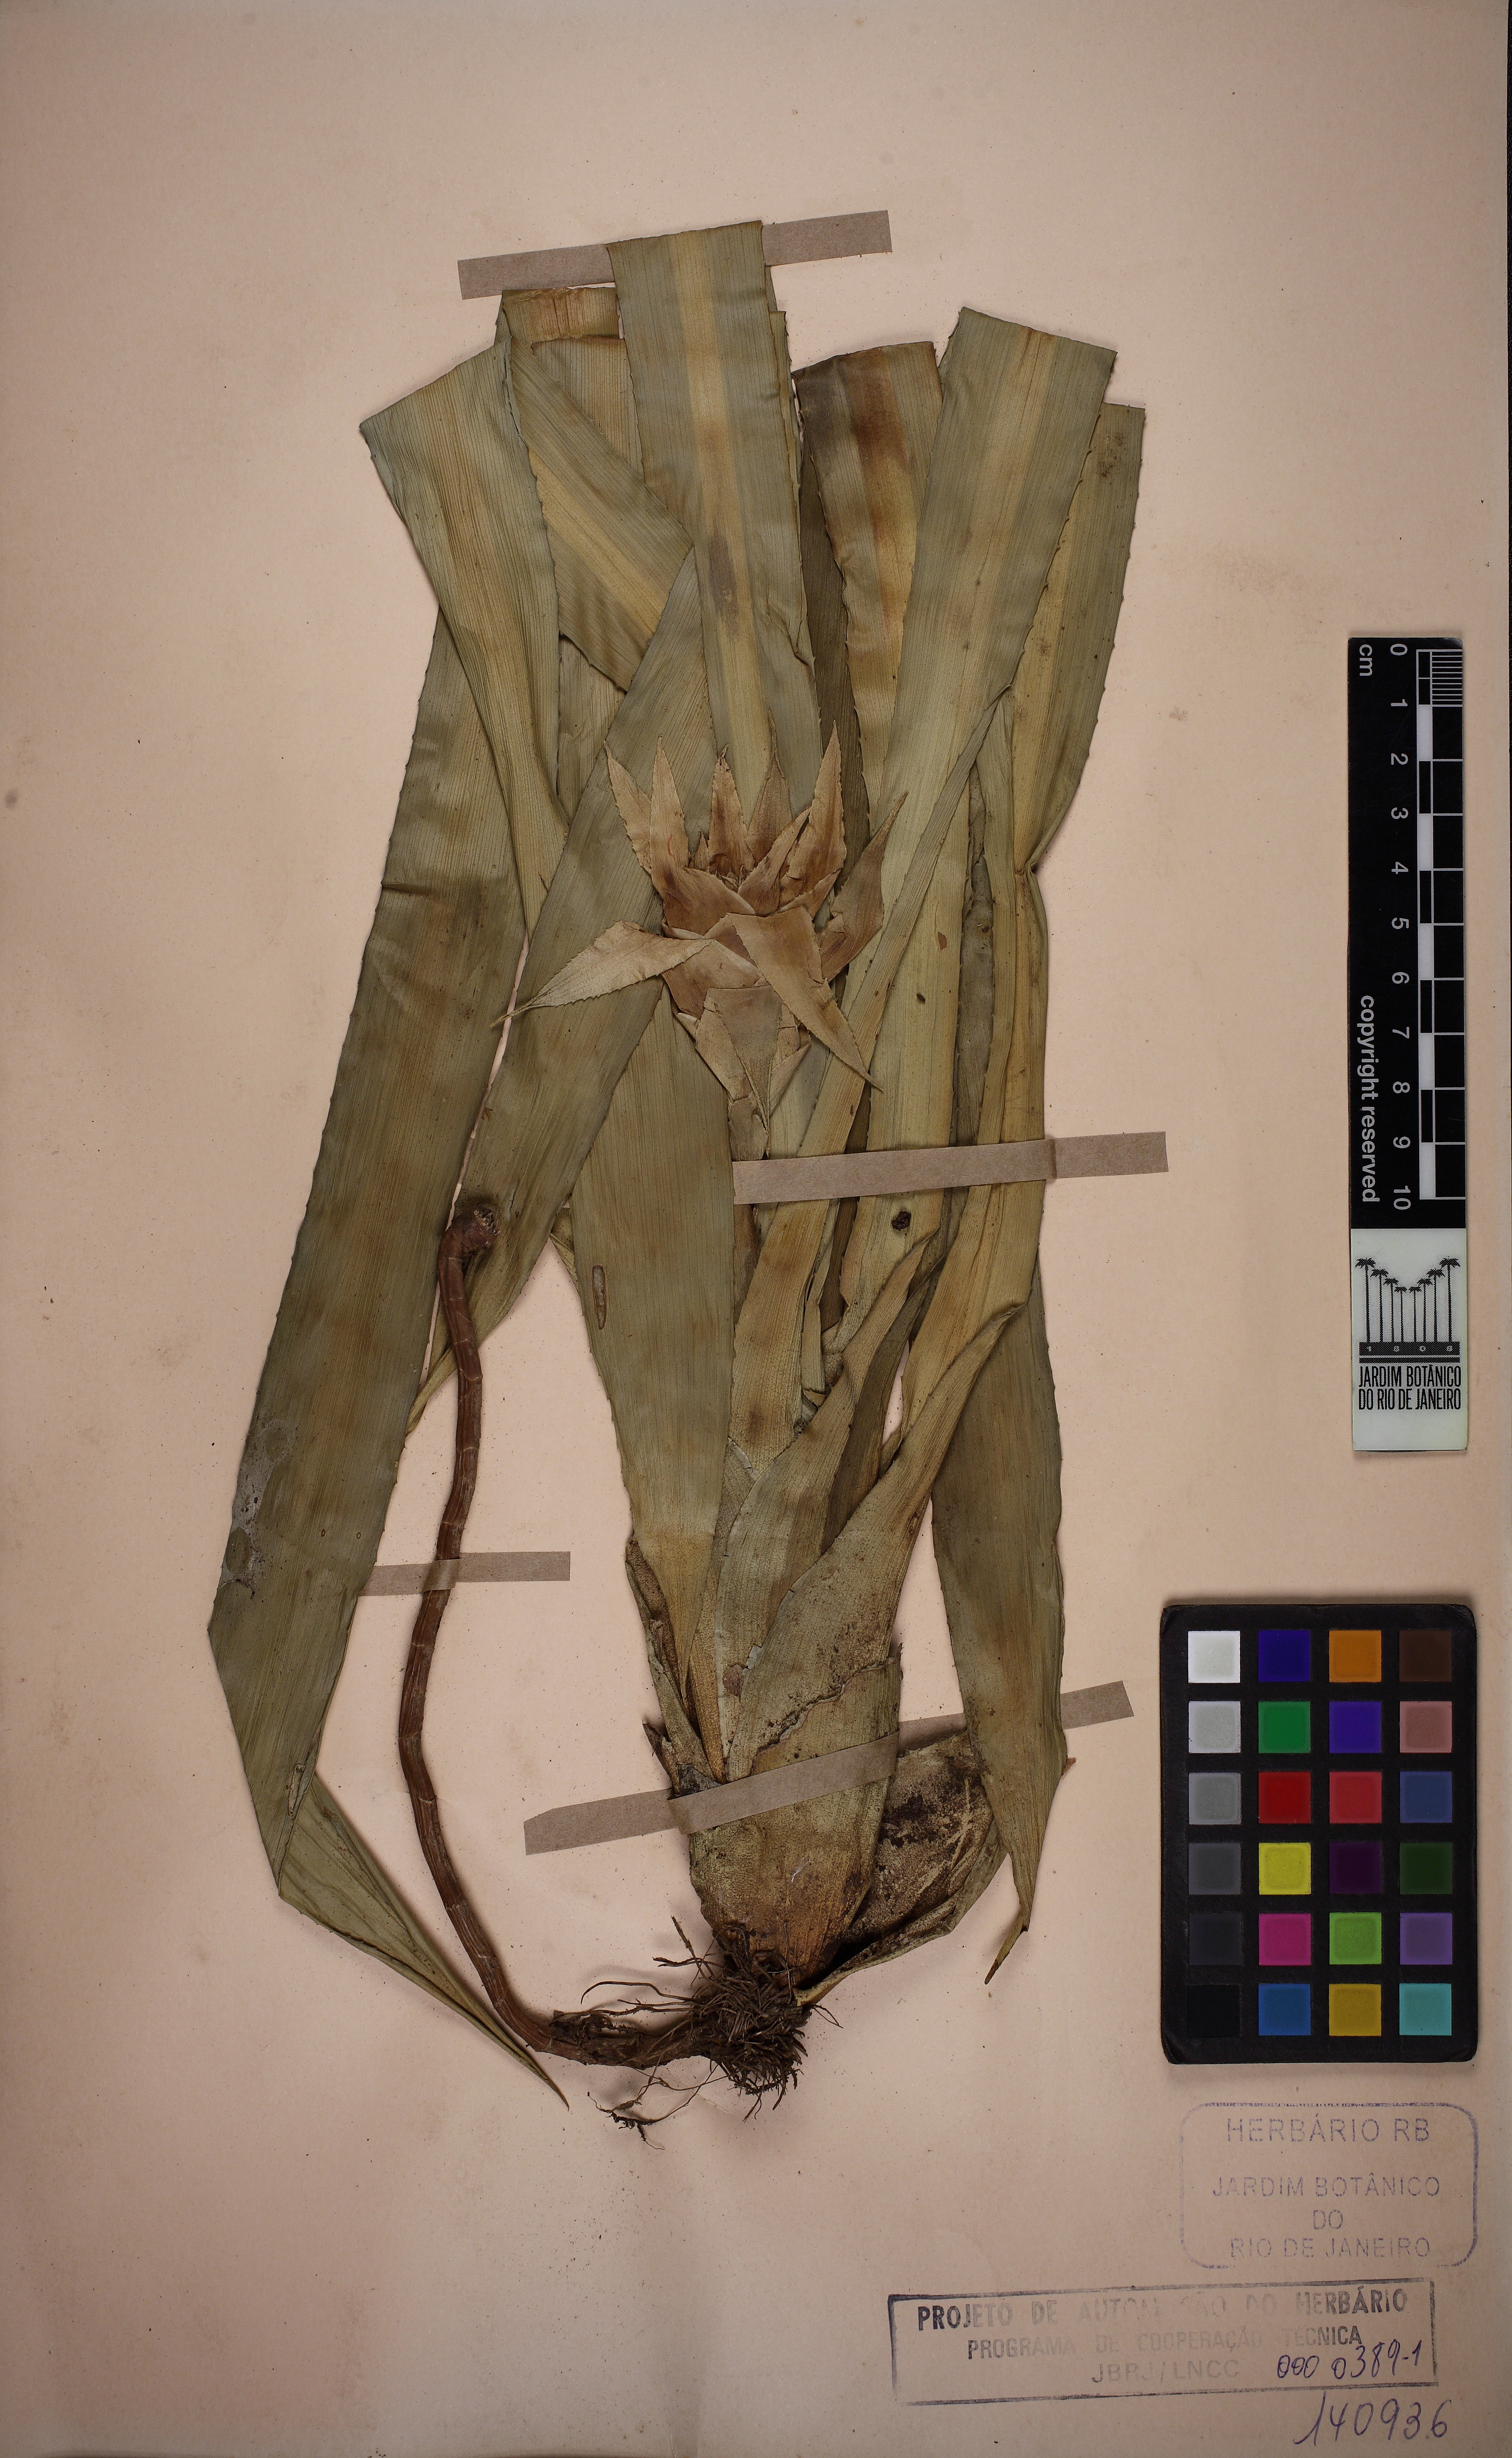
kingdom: Plantae
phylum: Tracheophyta
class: Liliopsida
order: Poales
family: Bromeliaceae
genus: Canistropsis
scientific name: Canistropsis billbergioides
